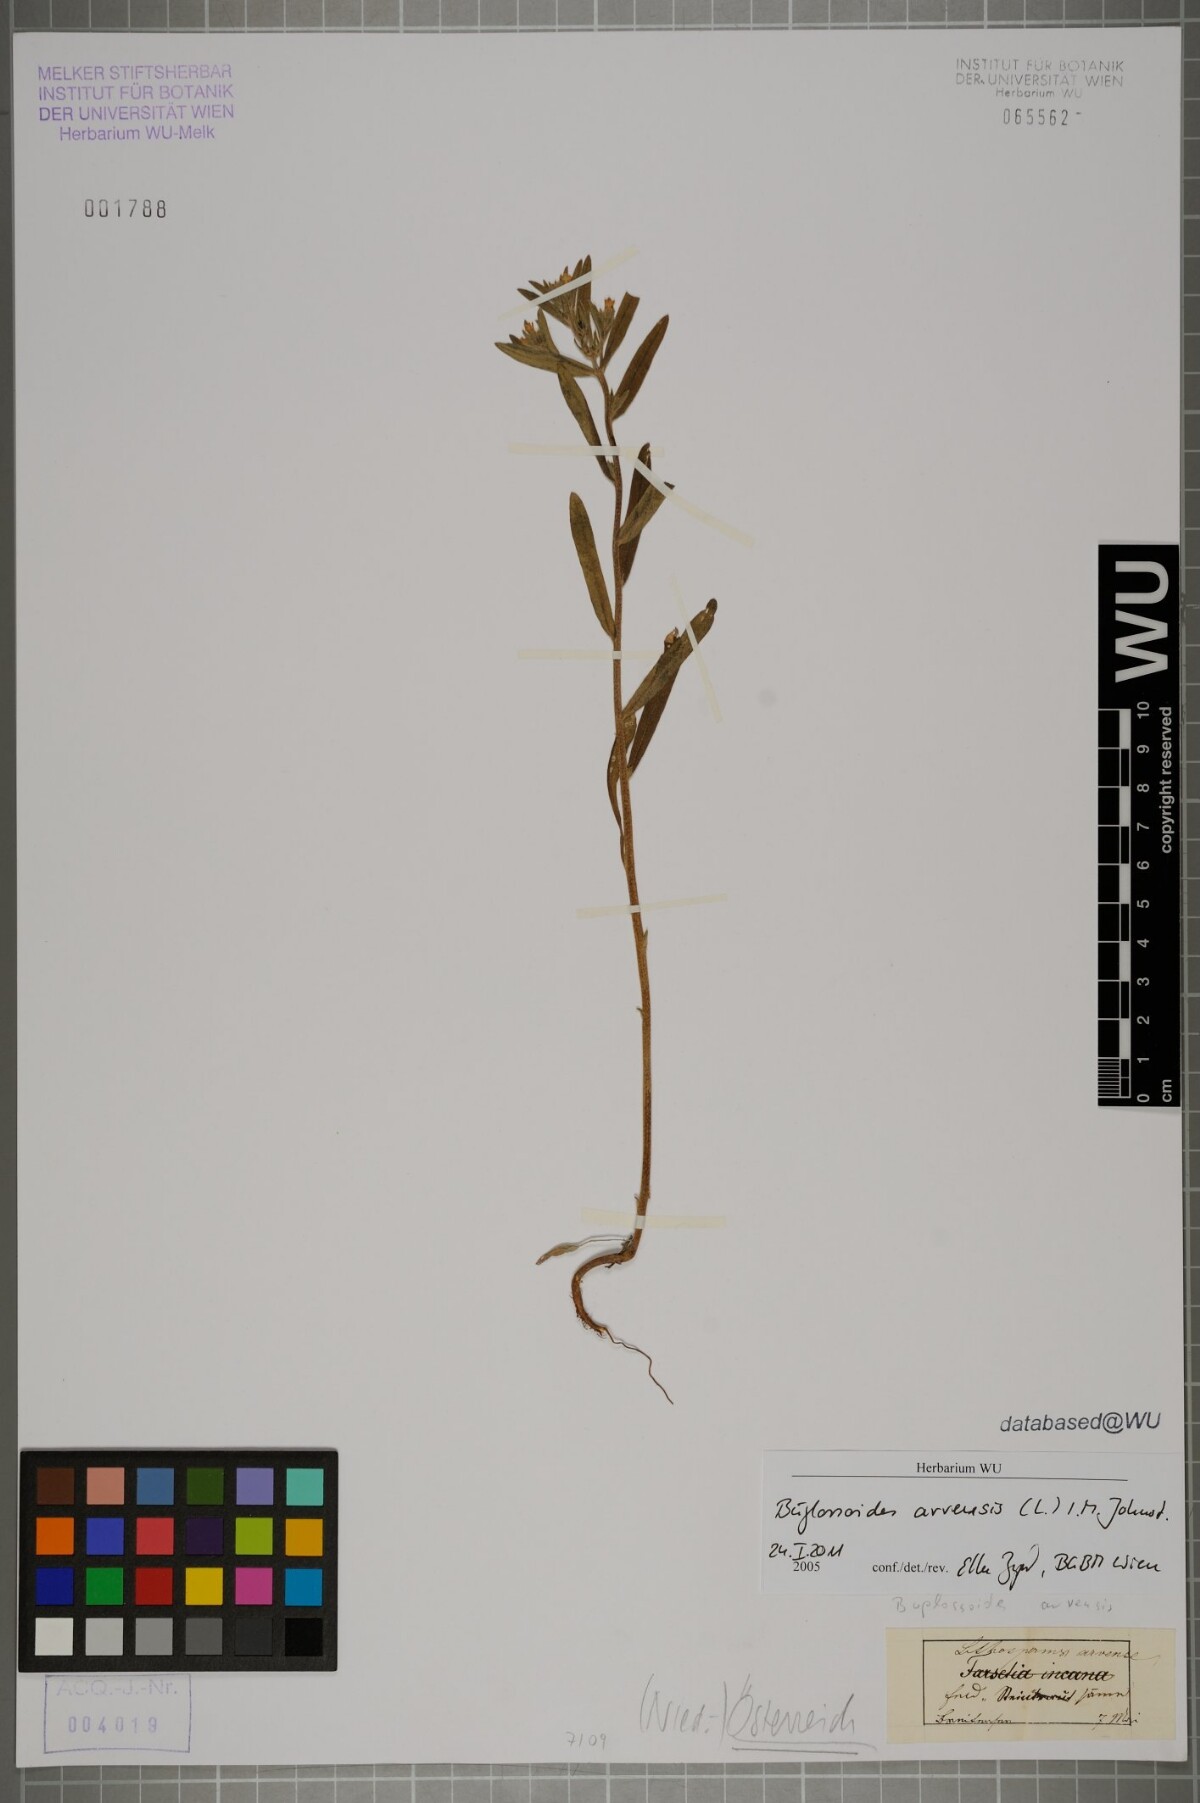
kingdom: Plantae
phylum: Tracheophyta
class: Magnoliopsida
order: Boraginales
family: Boraginaceae
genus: Buglossoides
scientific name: Buglossoides arvensis
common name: Corn gromwell
